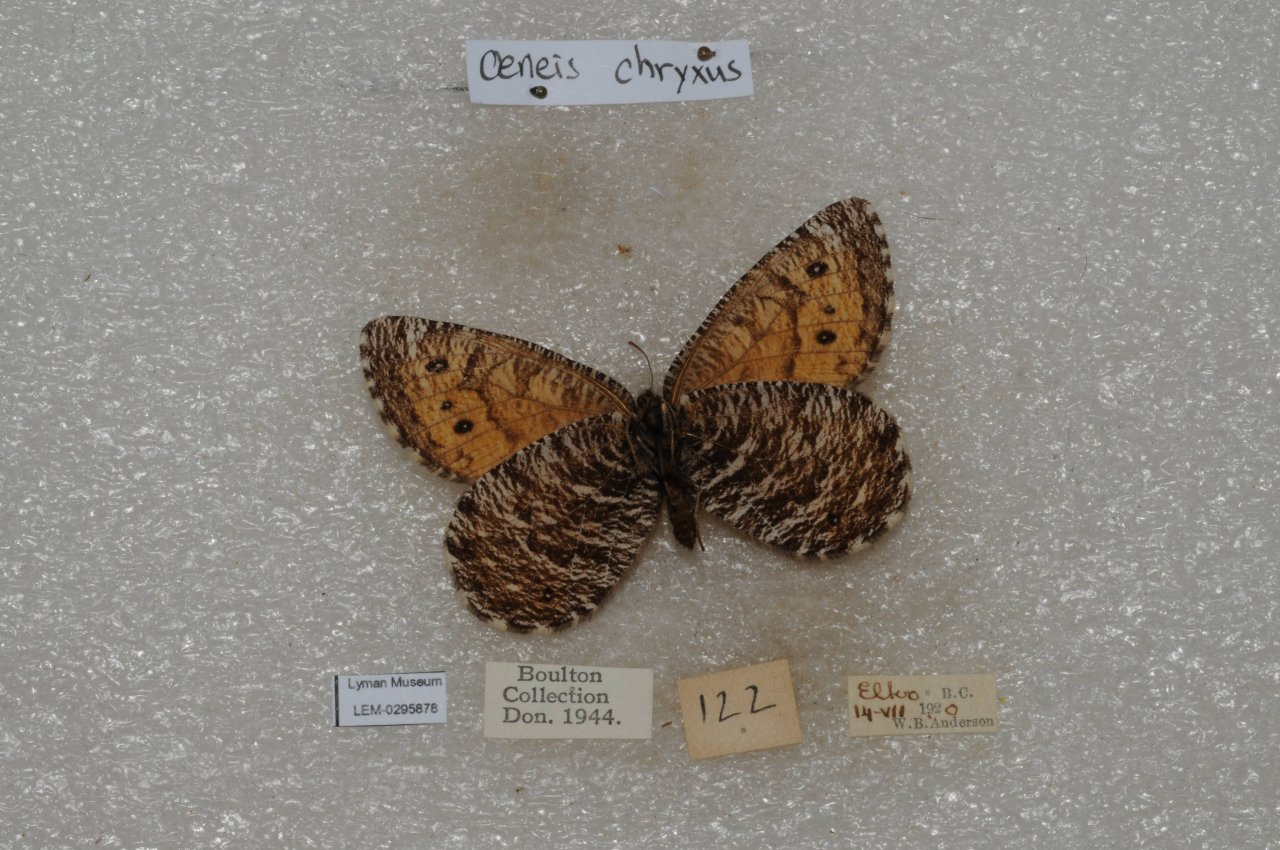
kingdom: Animalia
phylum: Arthropoda
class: Insecta
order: Lepidoptera
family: Nymphalidae
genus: Oeneis
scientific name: Oeneis chryxus
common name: Chryxus Arctic
